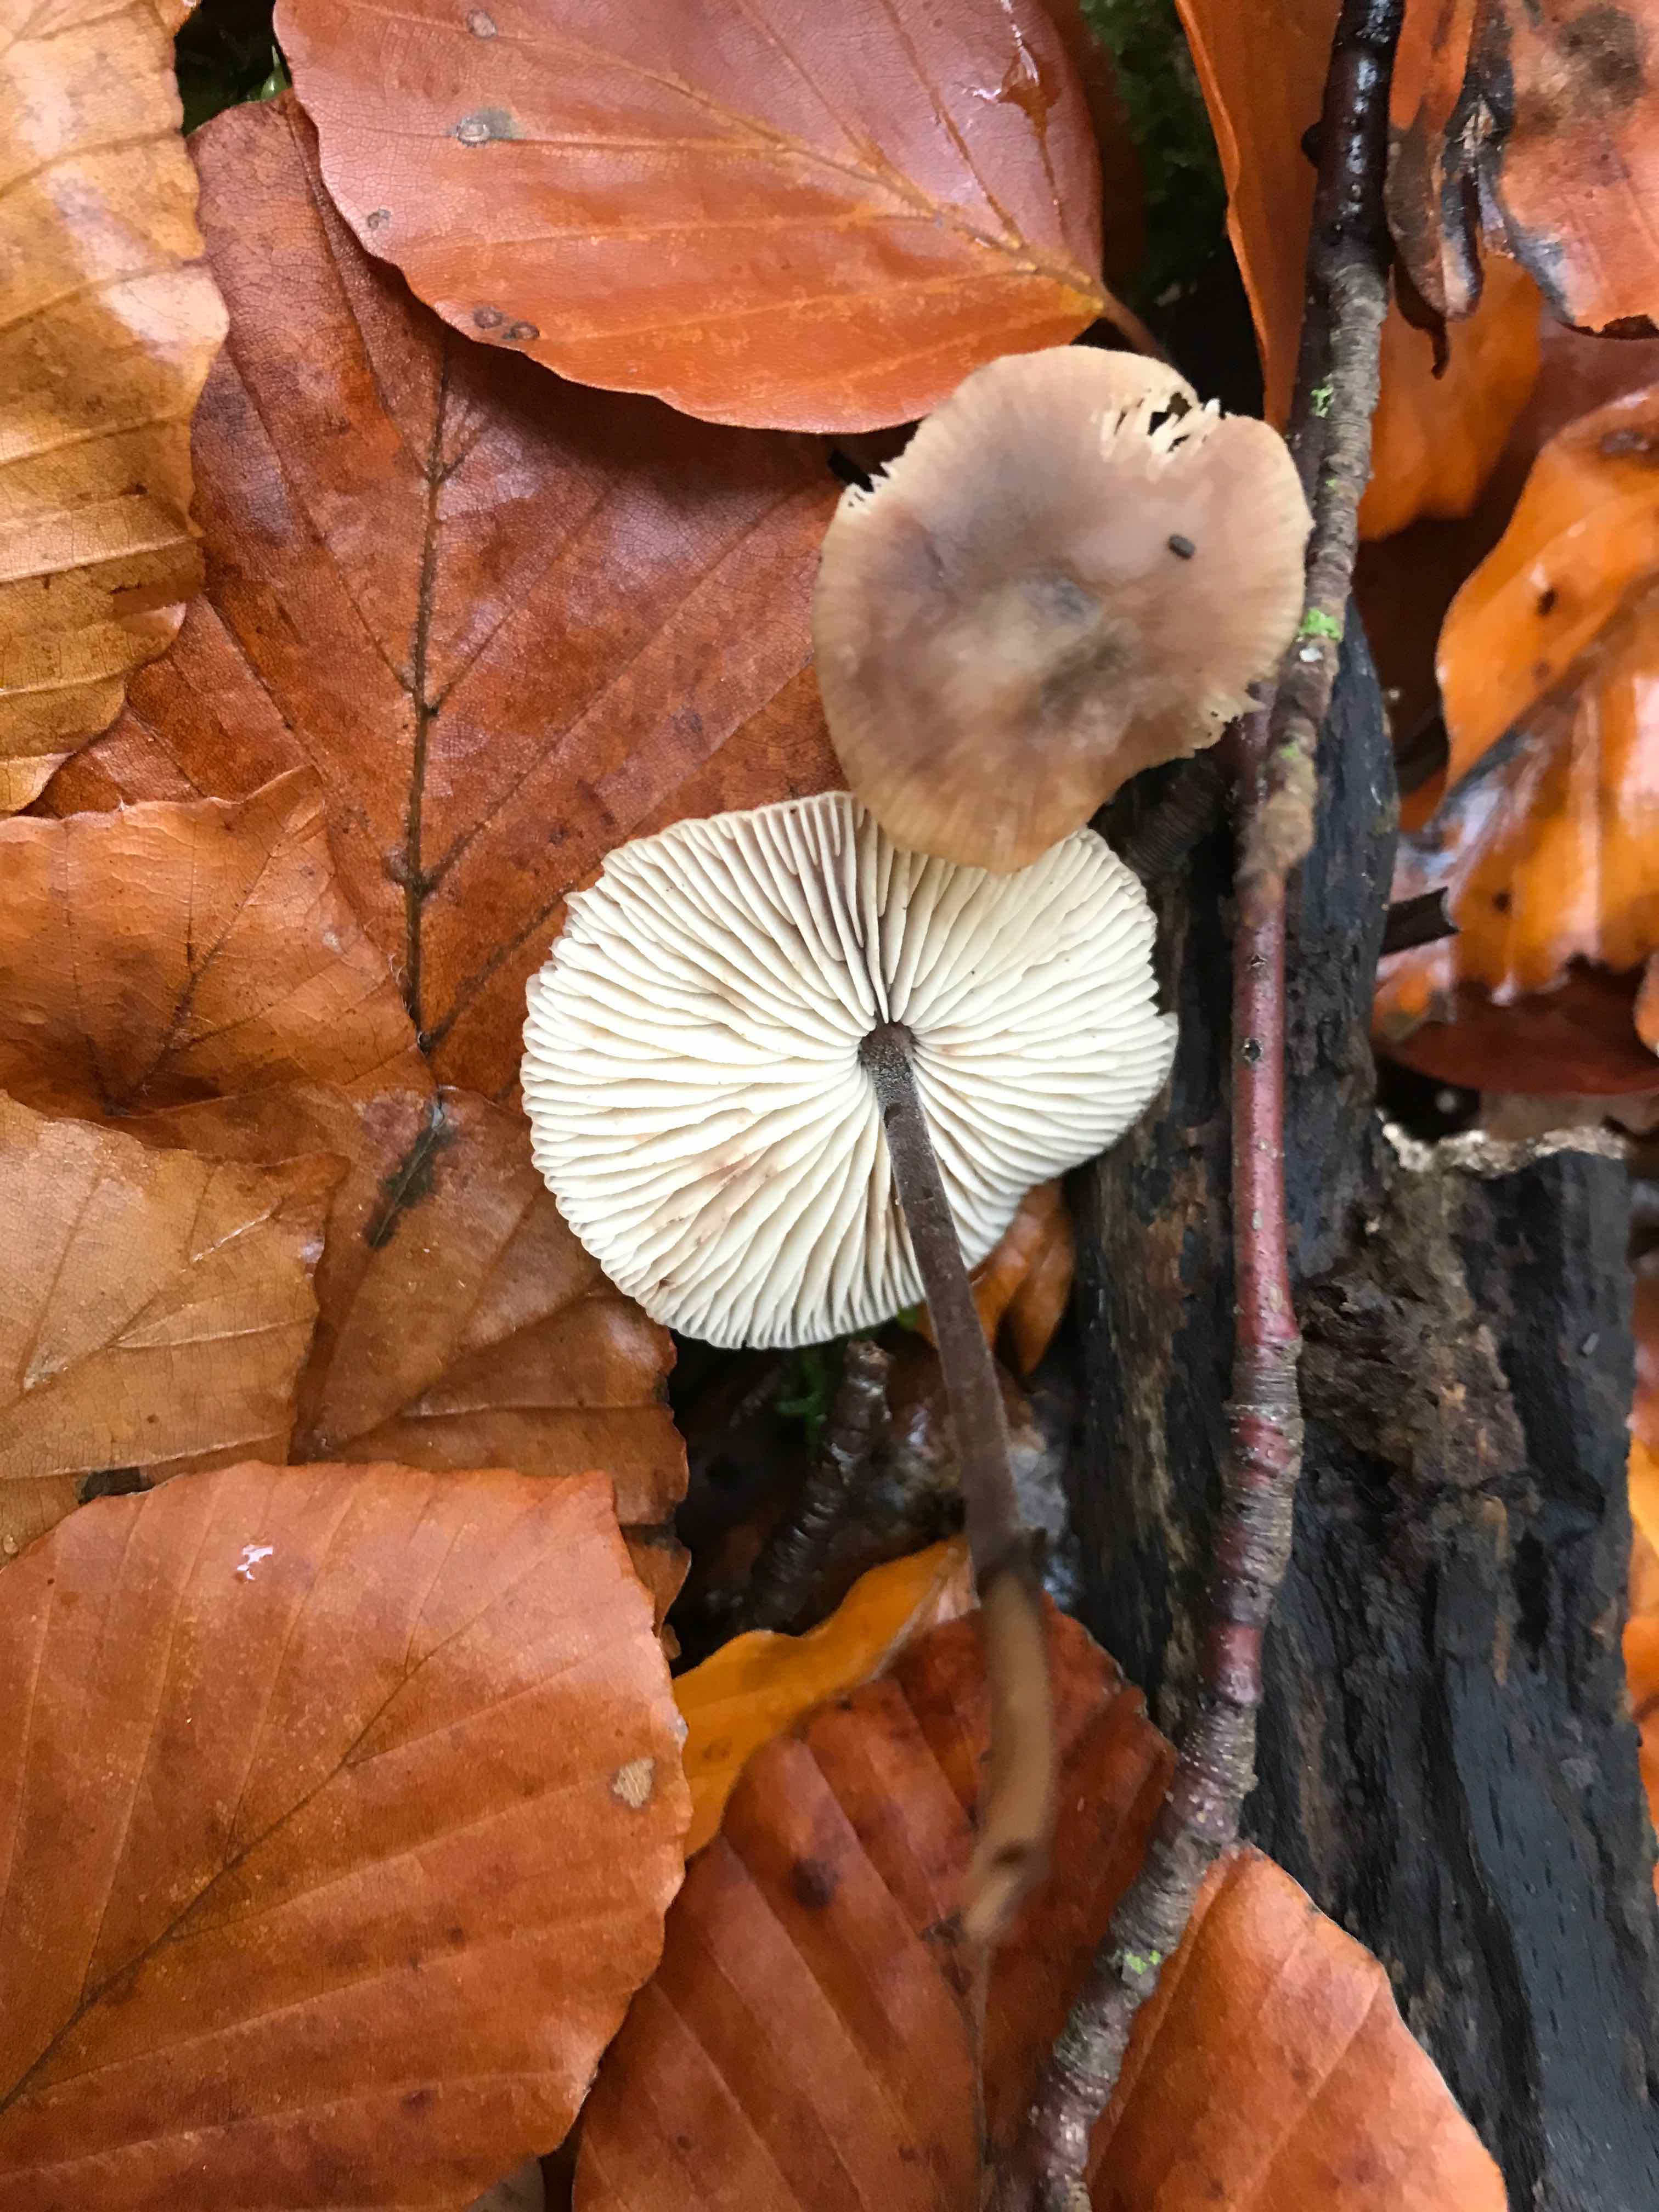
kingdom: Fungi
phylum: Basidiomycota
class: Agaricomycetes
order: Agaricales
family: Omphalotaceae
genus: Mycetinis
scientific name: Mycetinis alliaceus
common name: stor løghat
